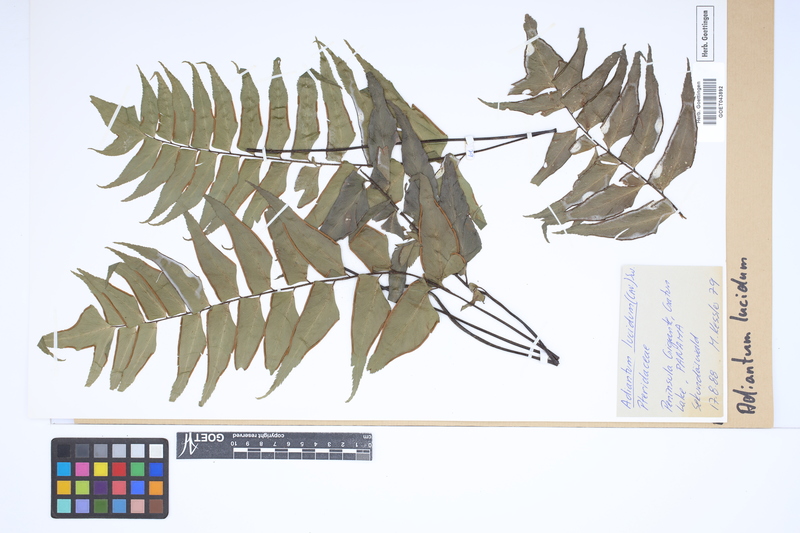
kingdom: Plantae
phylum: Tracheophyta
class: Polypodiopsida
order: Polypodiales
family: Pteridaceae
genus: Adiantum
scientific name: Adiantum lucidum
